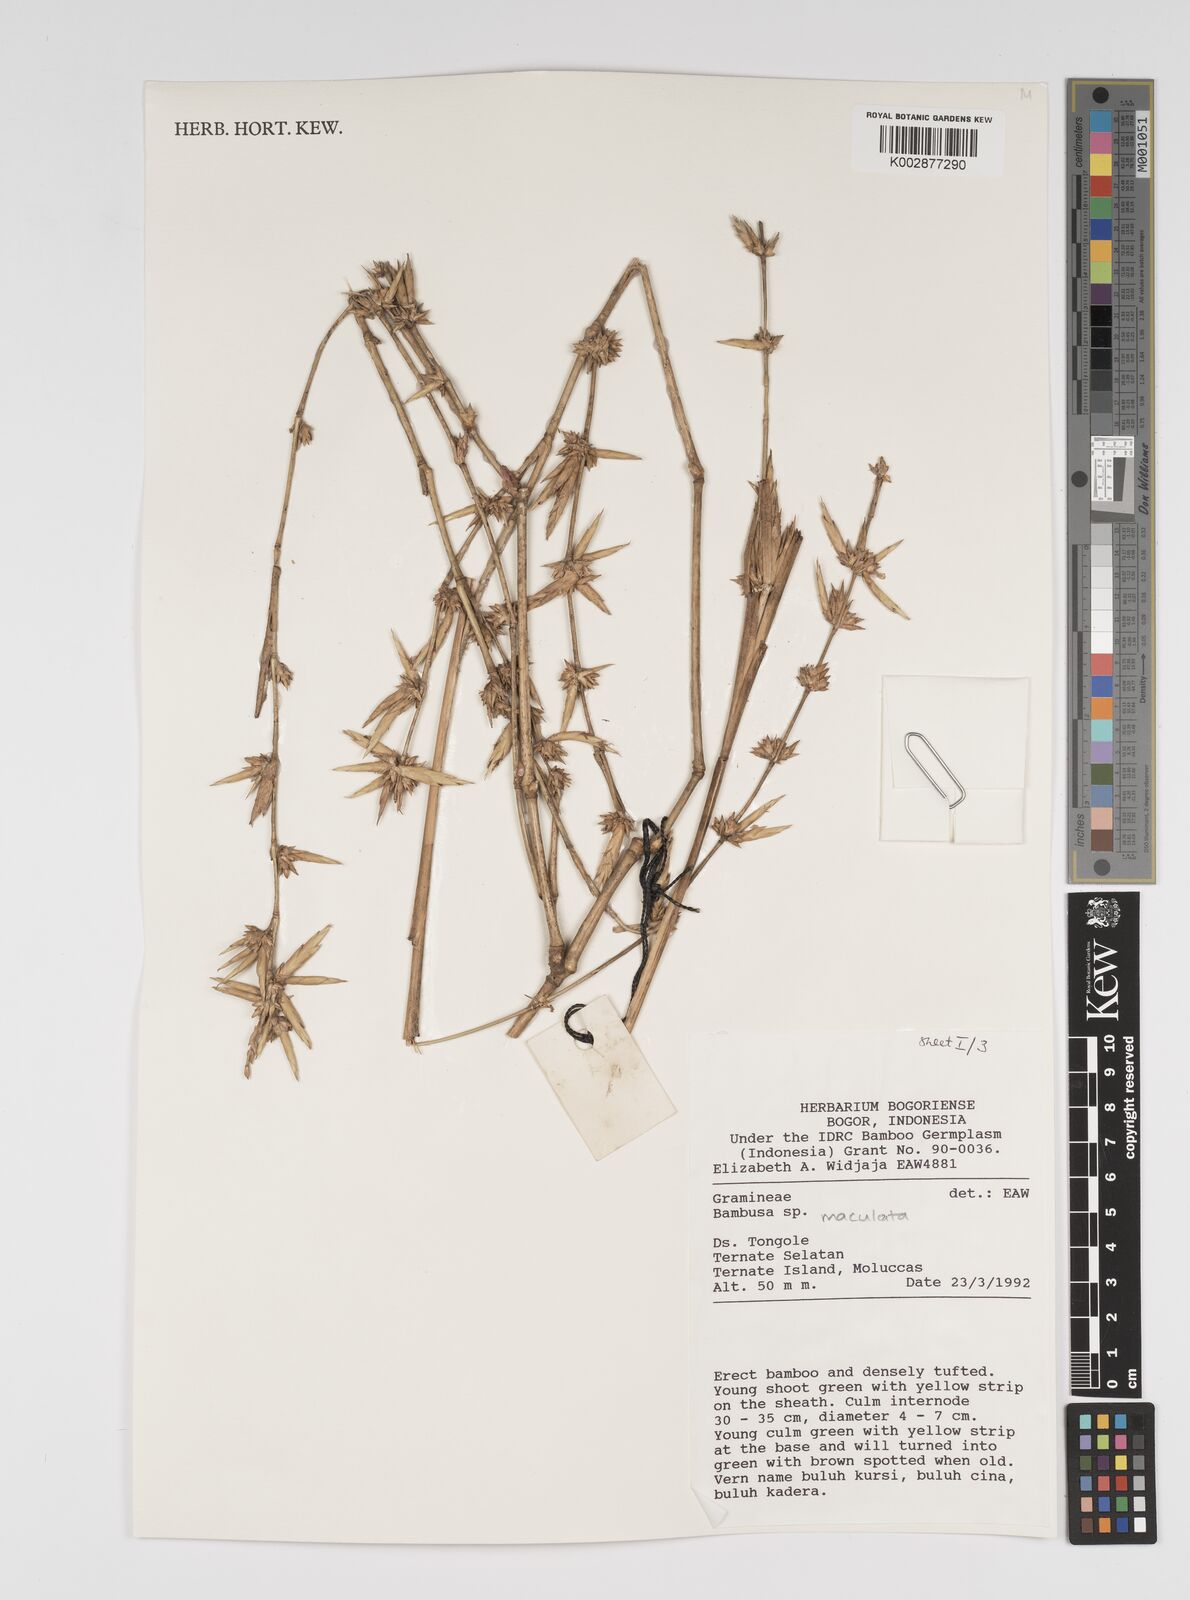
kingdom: Plantae
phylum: Tracheophyta
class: Liliopsida
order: Poales
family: Poaceae
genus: Bambusa
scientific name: Bambusa maculata
